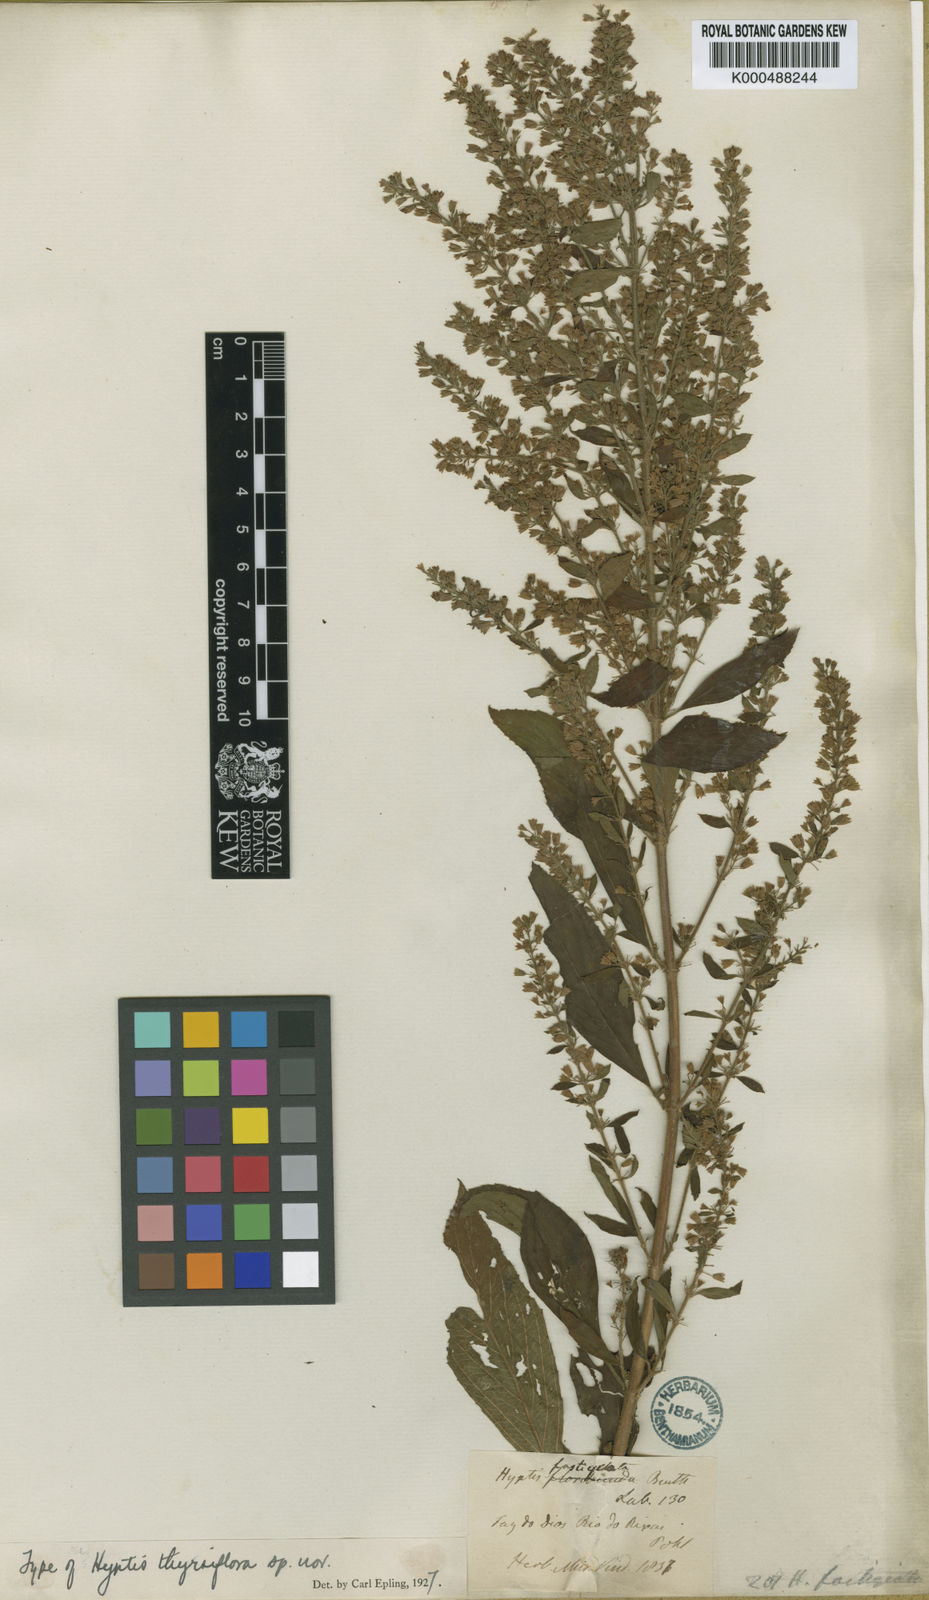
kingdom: Plantae
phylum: Tracheophyta
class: Magnoliopsida
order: Lamiales
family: Lamiaceae
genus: Condea
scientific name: Condea thyrsiflora
